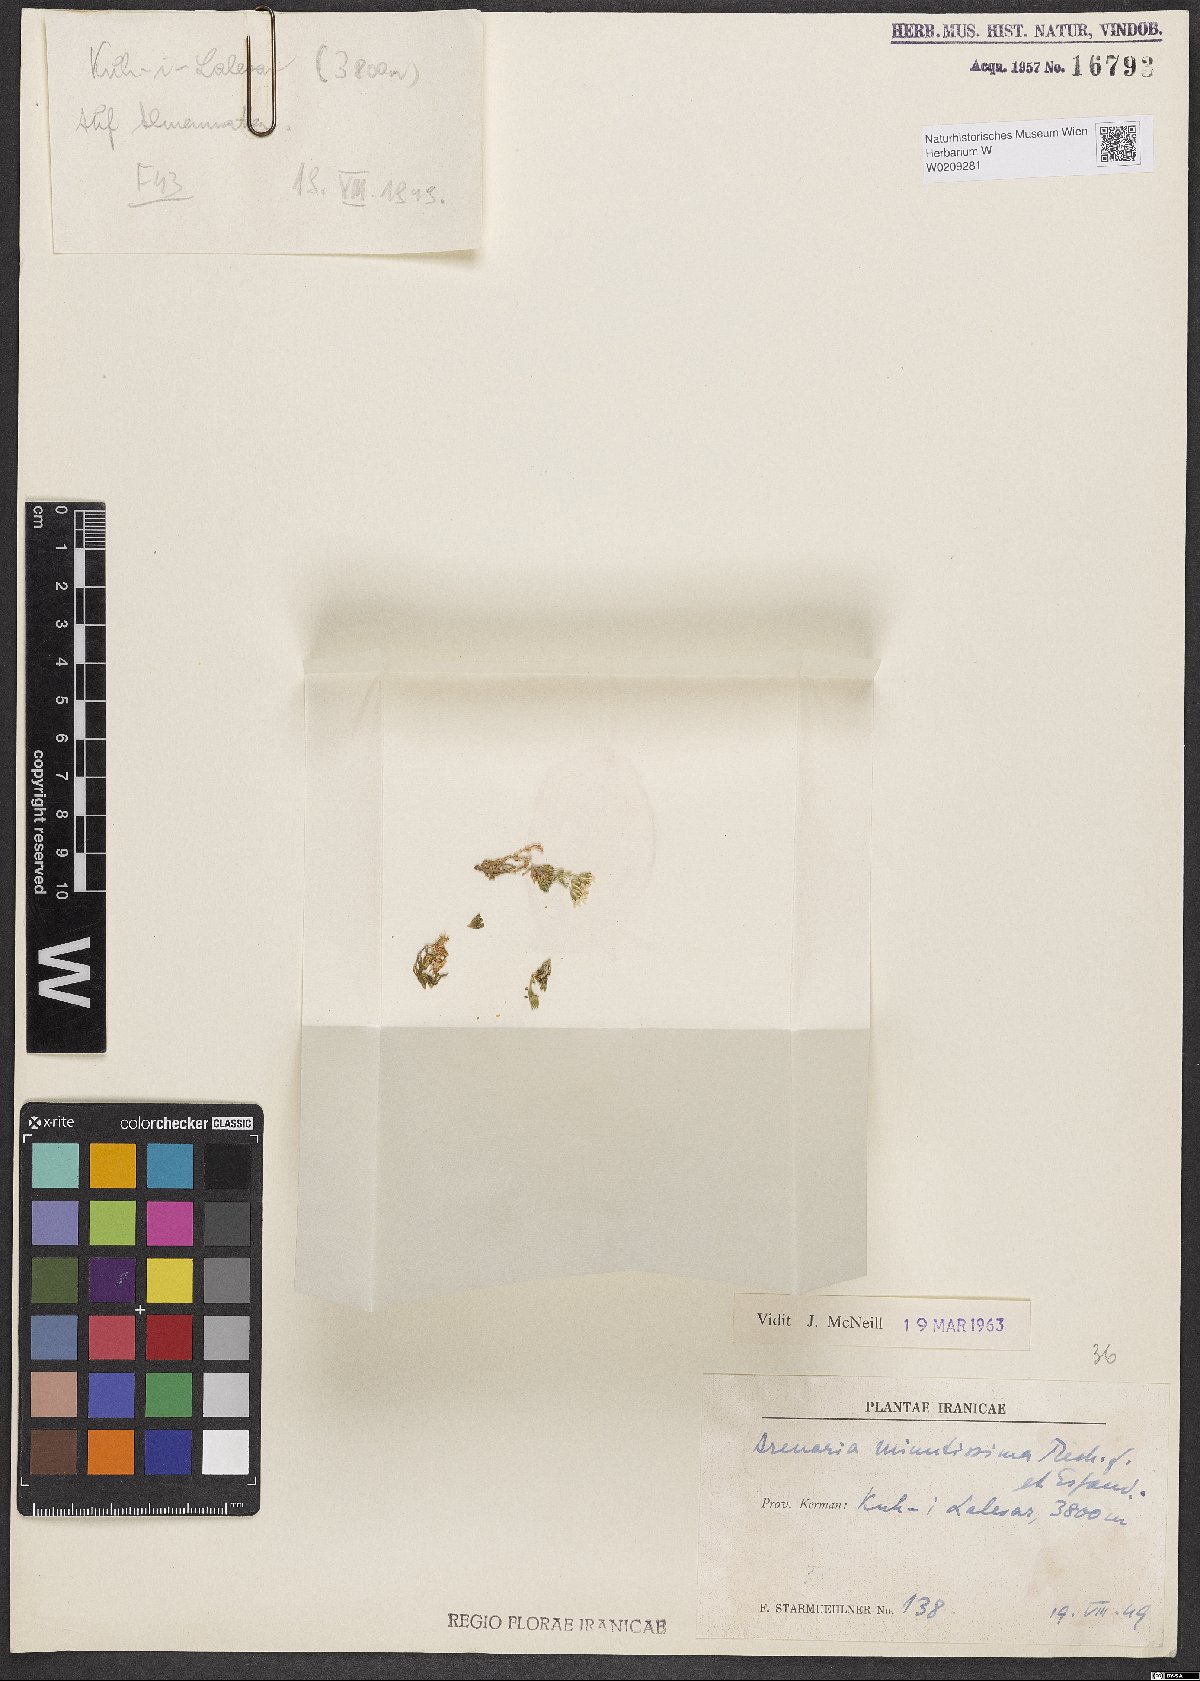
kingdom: Plantae
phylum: Tracheophyta
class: Magnoliopsida
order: Caryophyllales
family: Caryophyllaceae
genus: Arenaria
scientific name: Arenaria minutissima
